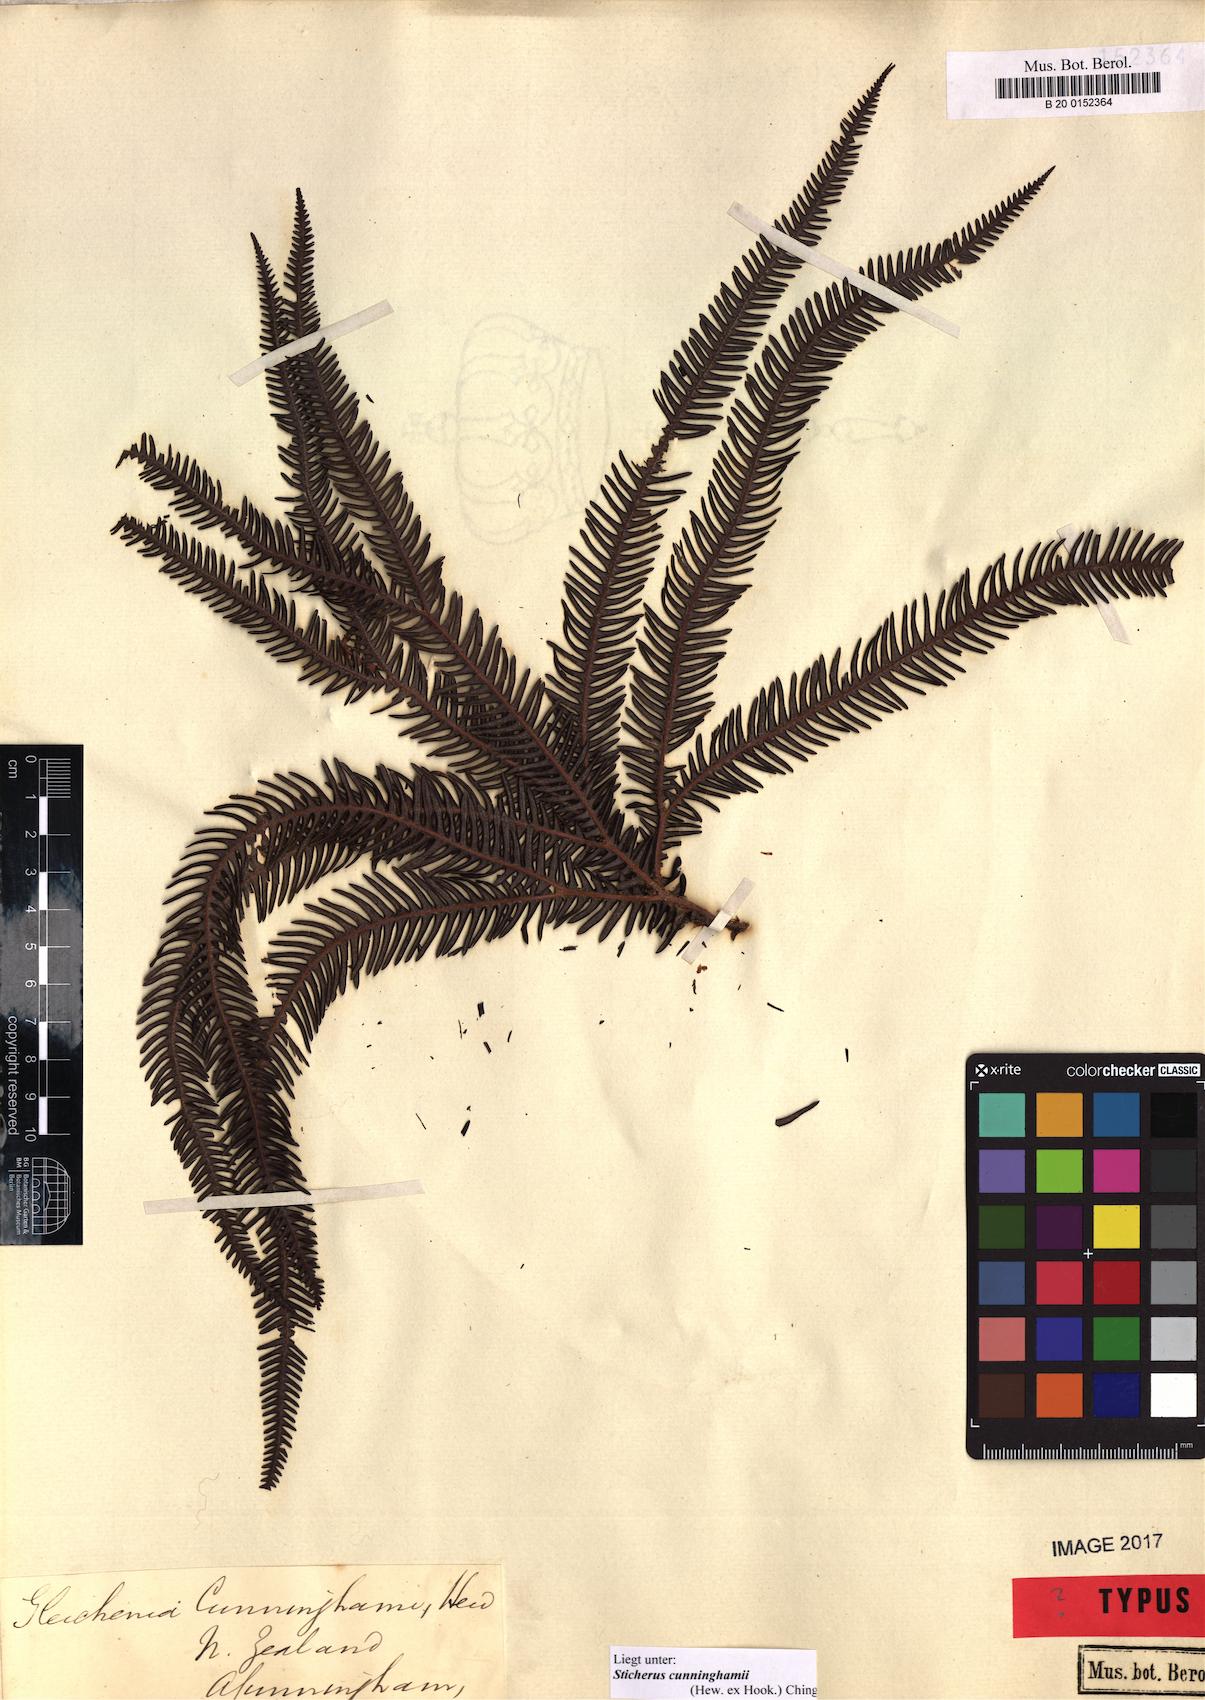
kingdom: Plantae
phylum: Tracheophyta
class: Polypodiopsida
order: Gleicheniales
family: Gleicheniaceae
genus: Sticherus
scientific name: Sticherus cunninghamii
